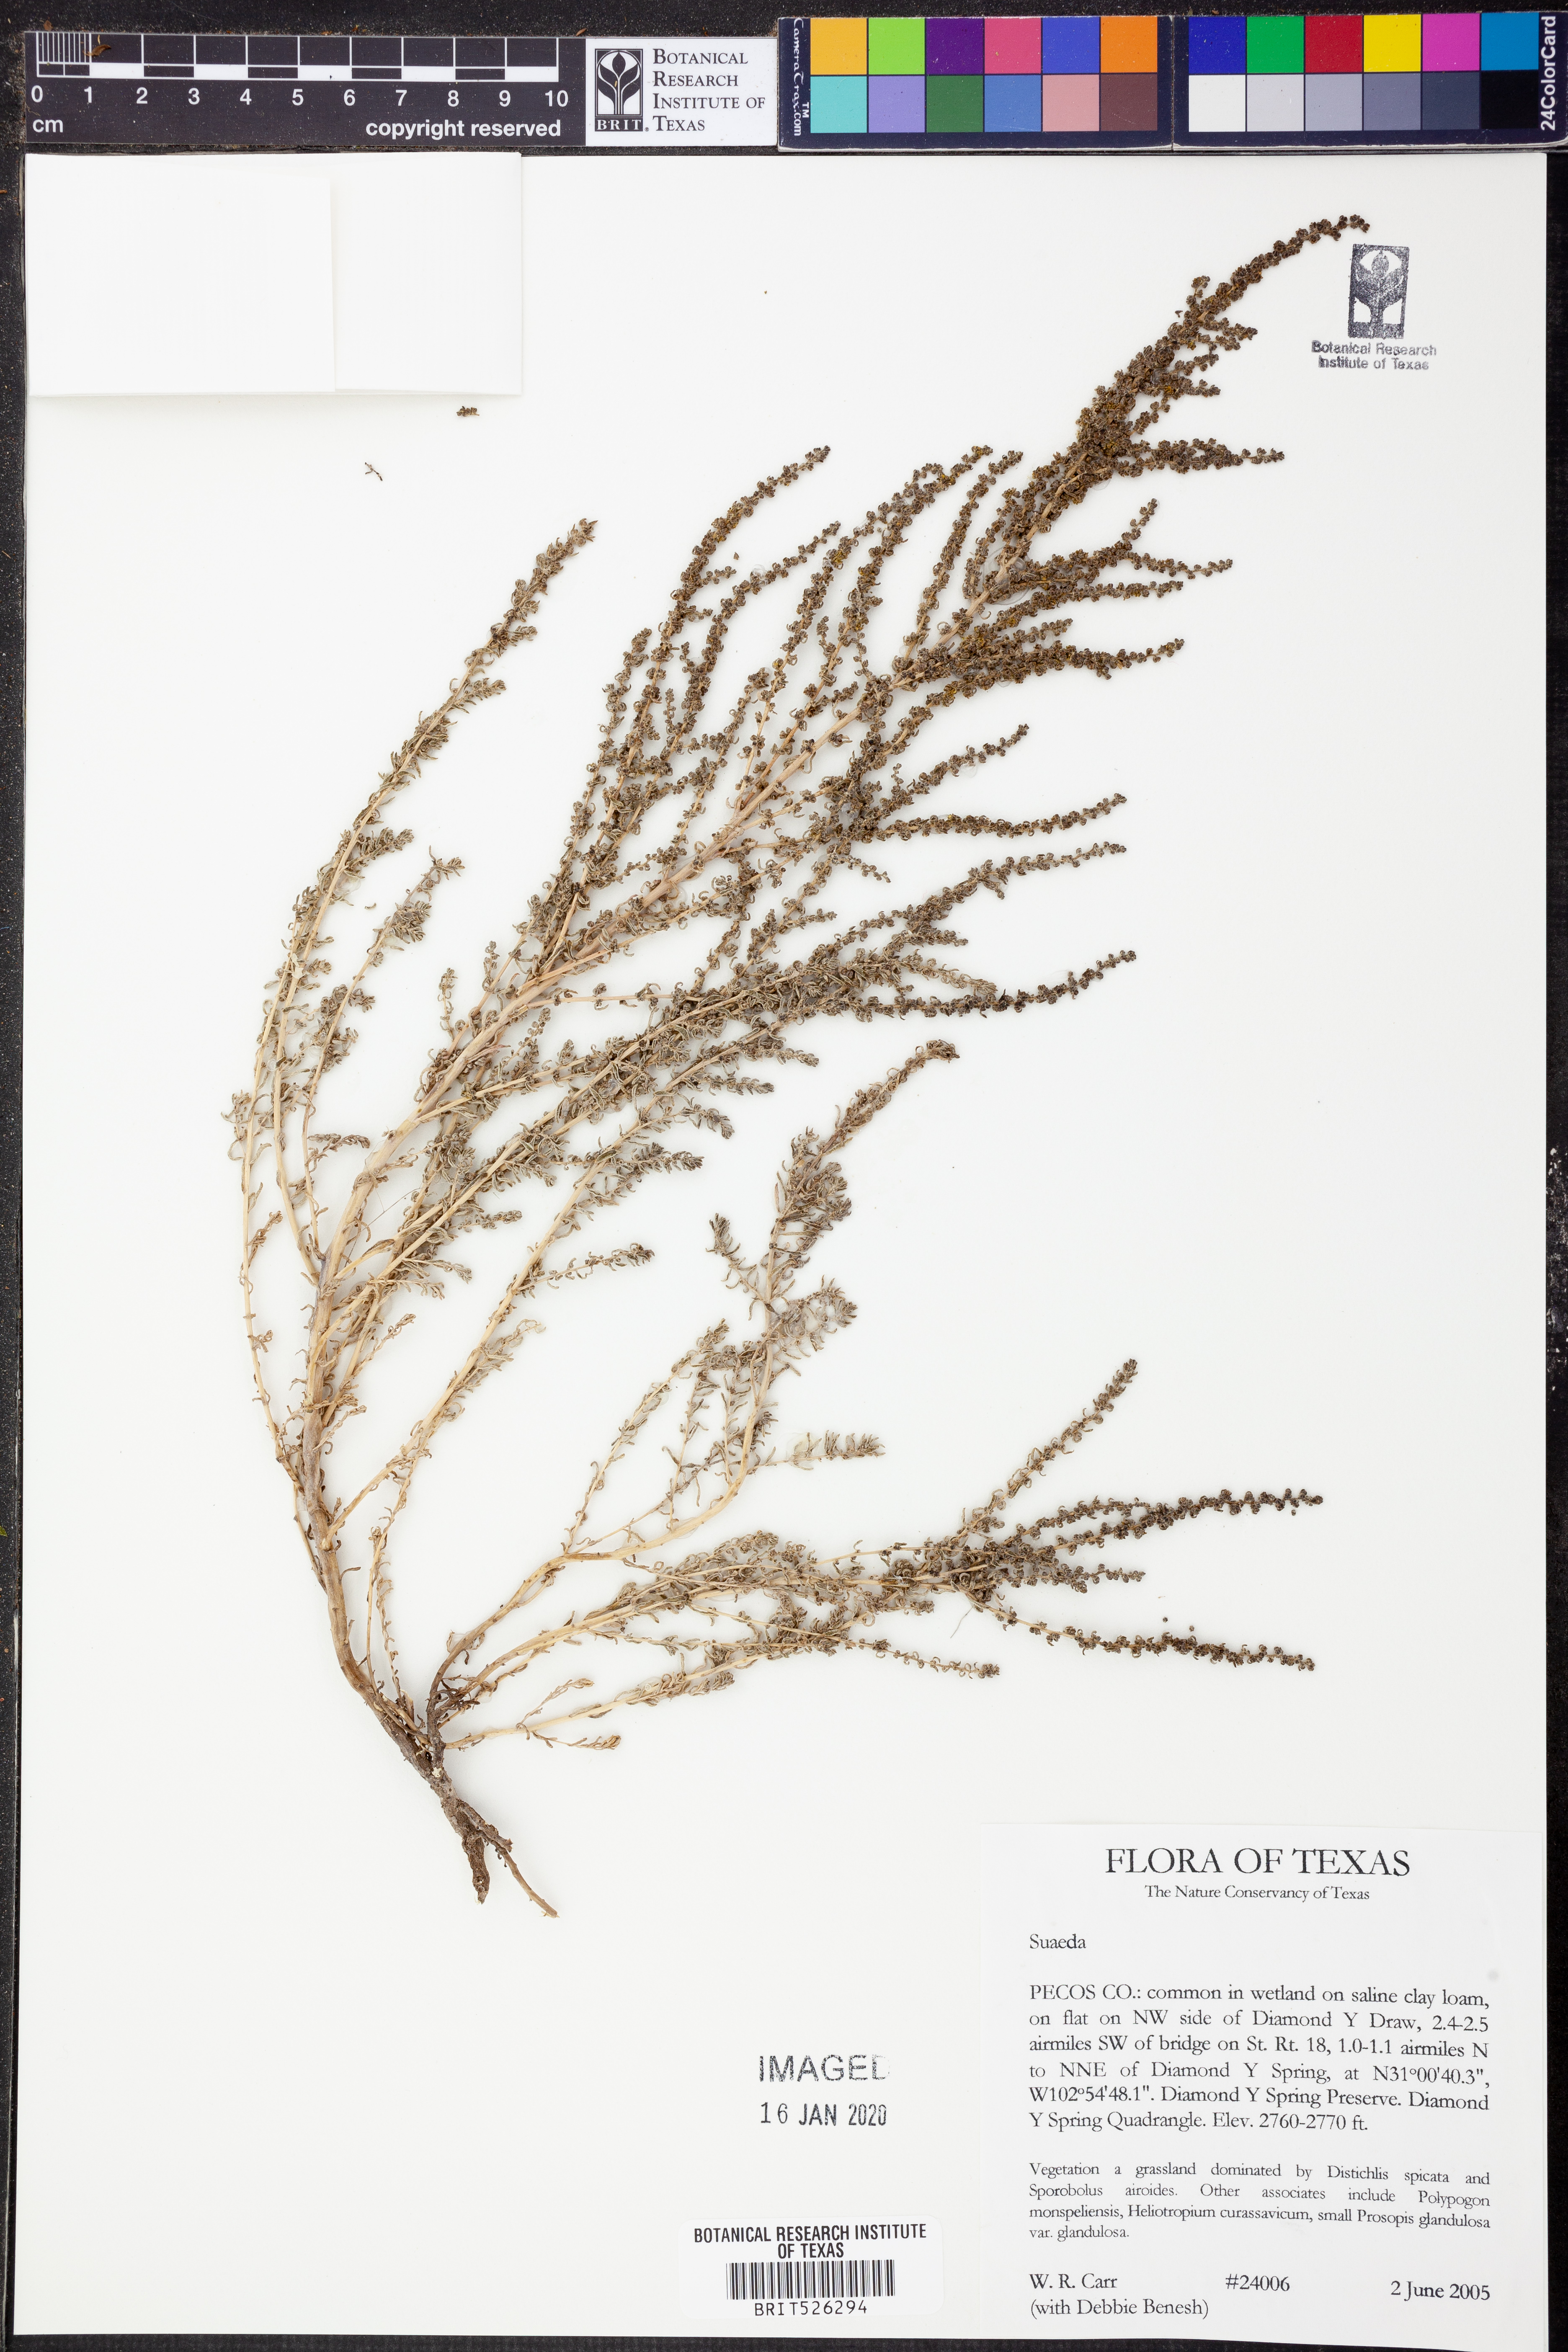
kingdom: Plantae
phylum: Tracheophyta
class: Magnoliopsida
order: Caryophyllales
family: Amaranthaceae
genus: Suaeda
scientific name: Suaeda
